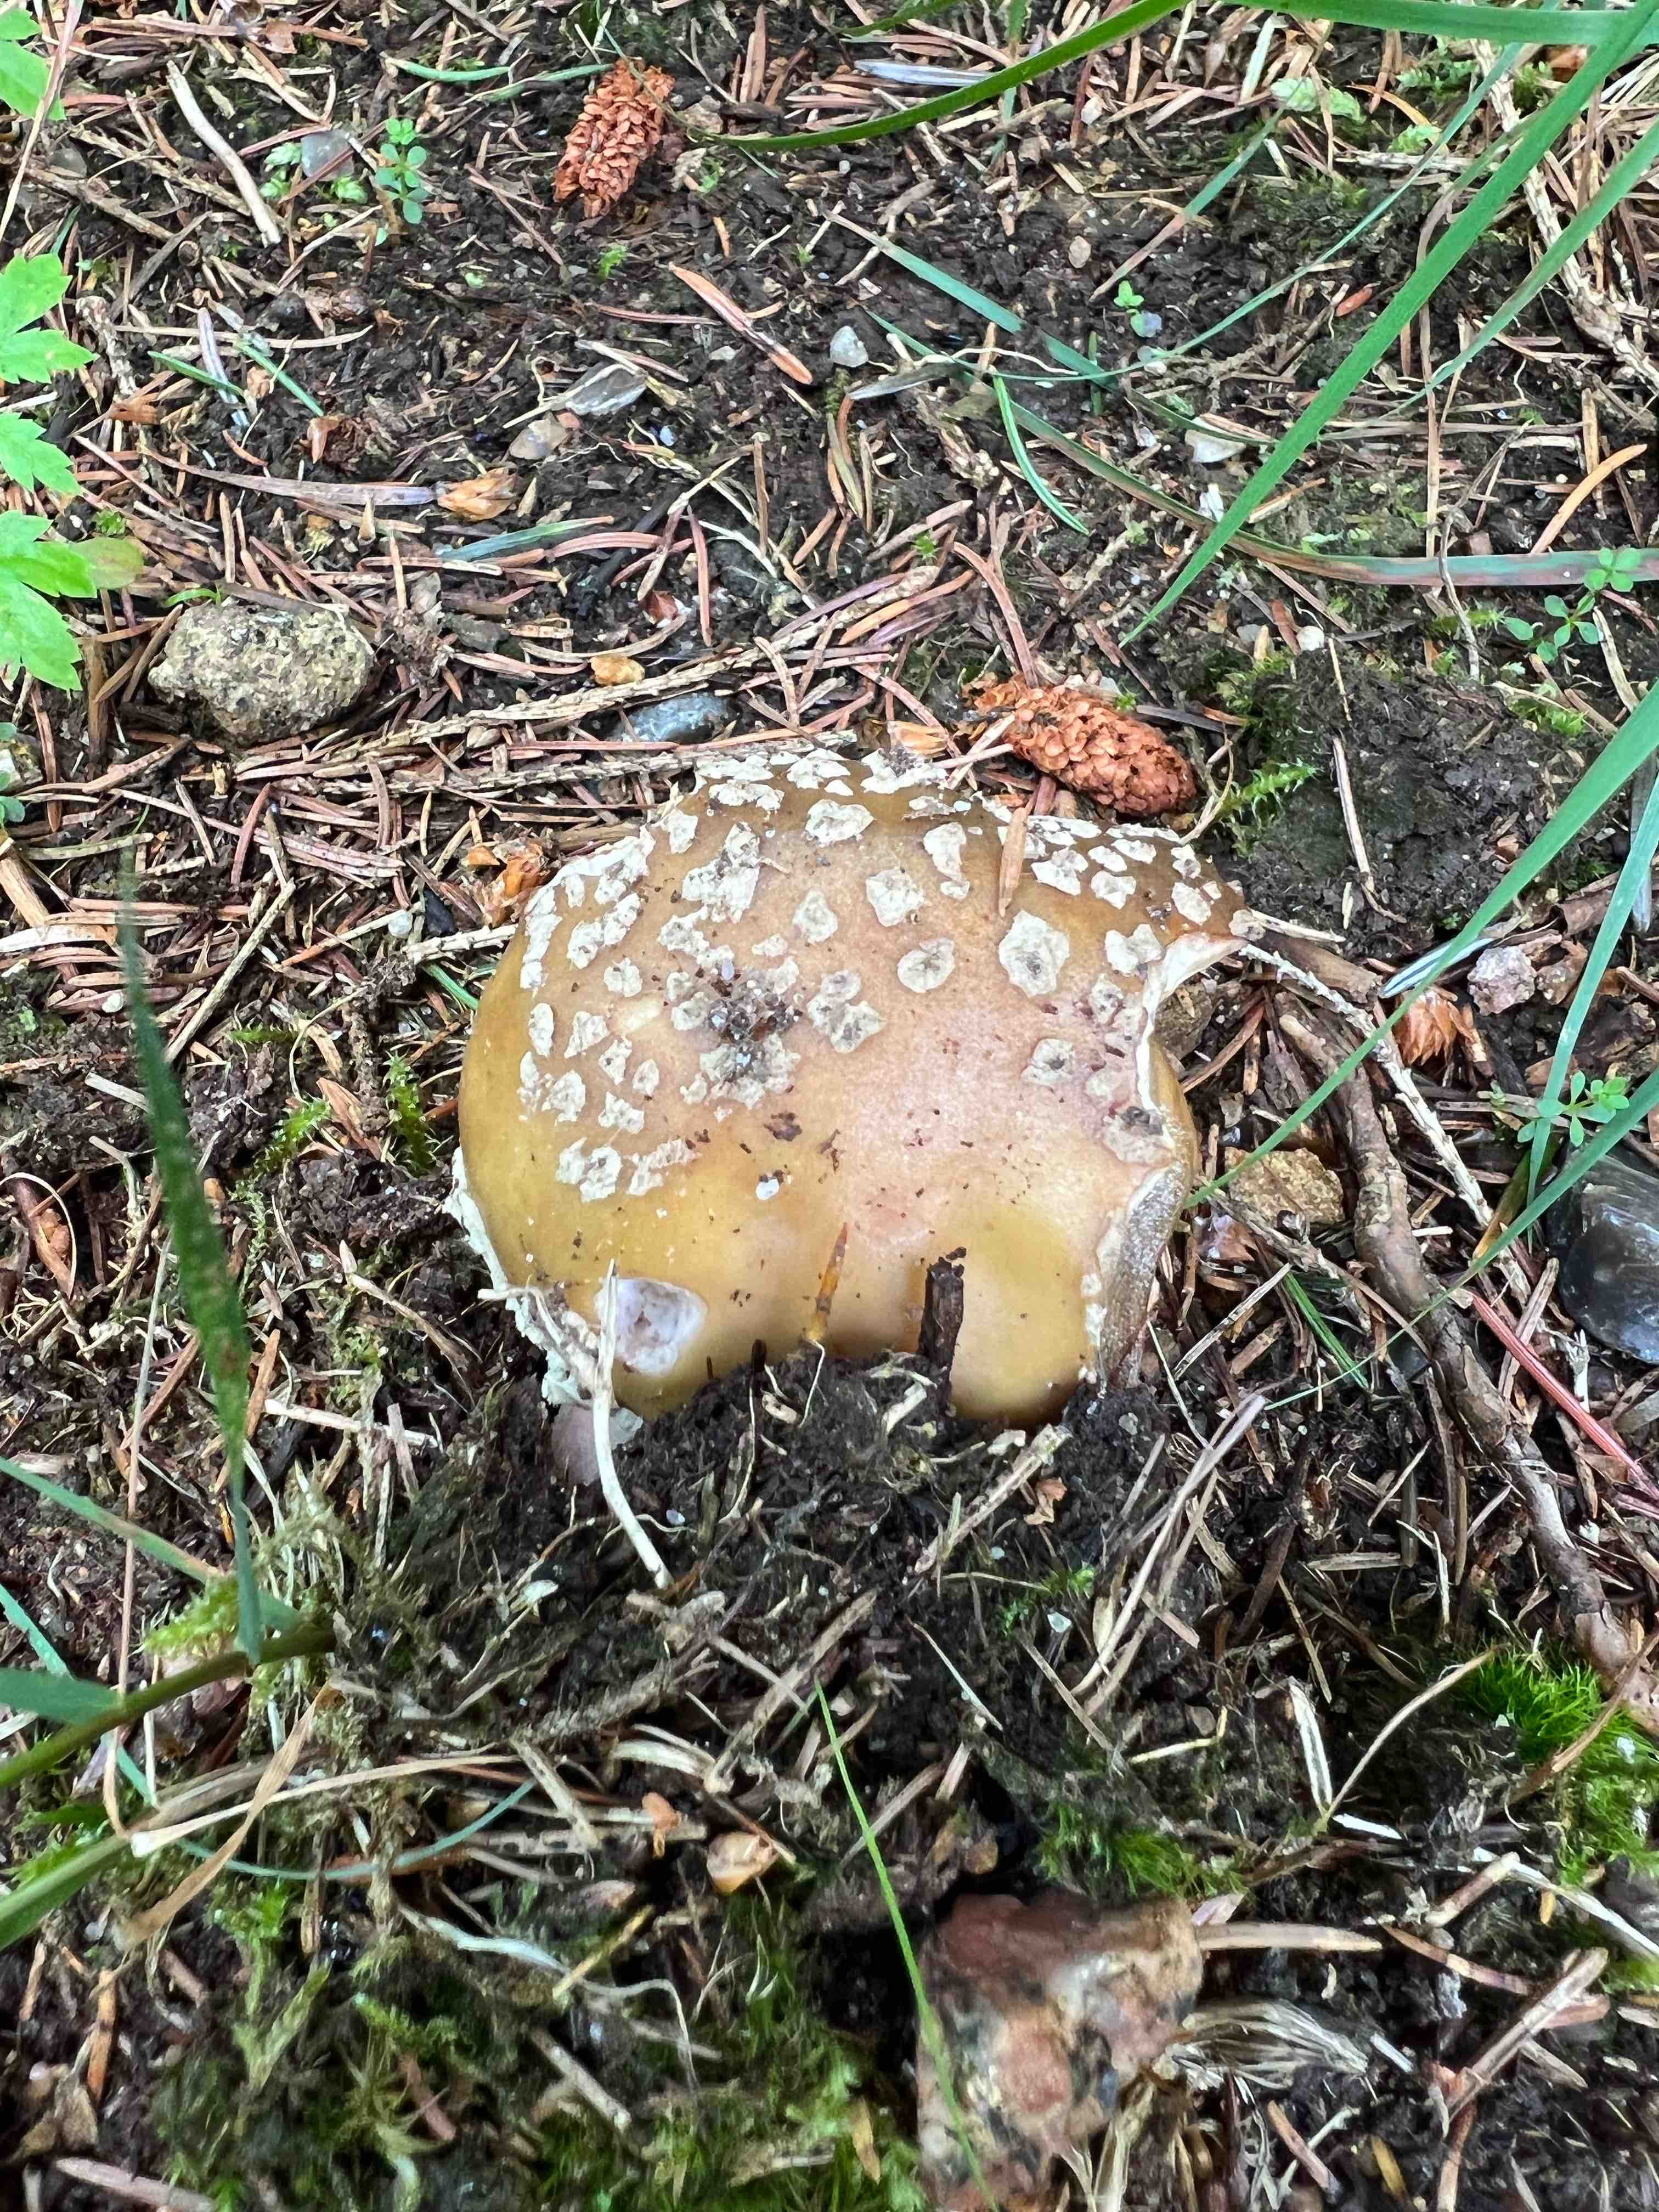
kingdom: Fungi
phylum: Basidiomycota
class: Agaricomycetes
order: Agaricales
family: Amanitaceae
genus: Amanita
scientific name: Amanita rubescens
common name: rødmende fluesvamp
